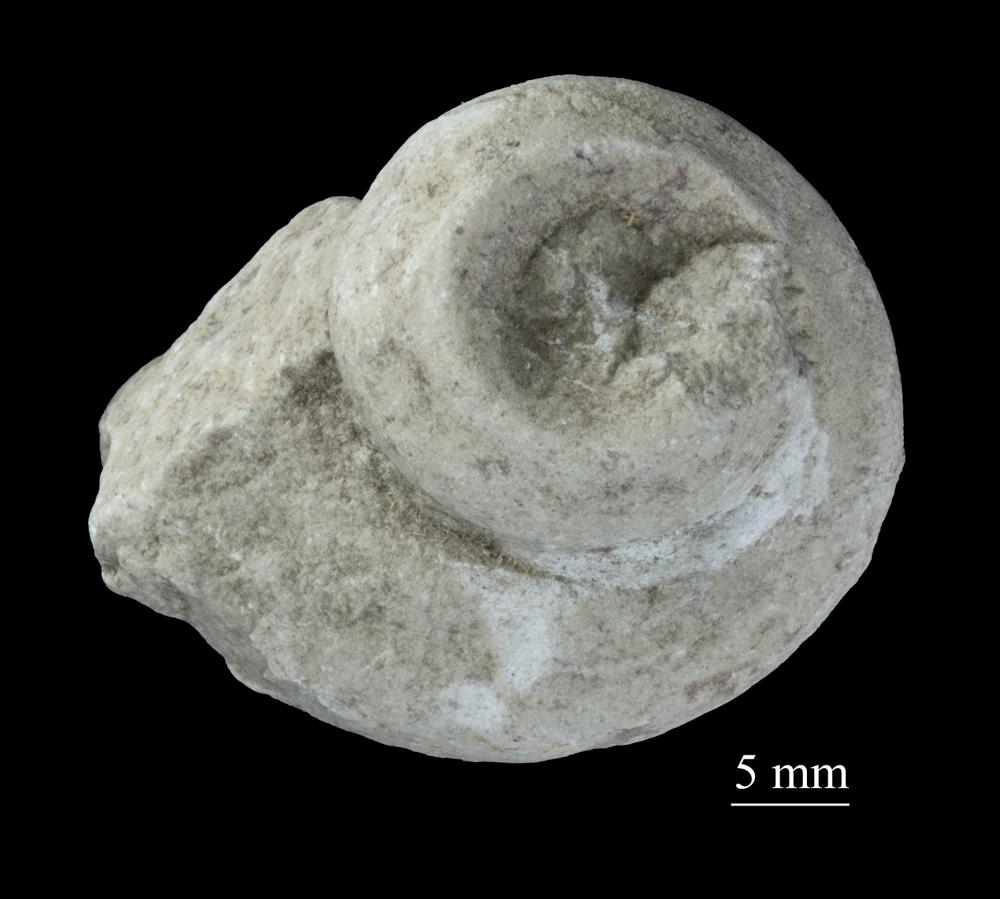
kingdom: Animalia
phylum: Mollusca
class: Gastropoda
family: Lophospiridae
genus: Ruedemannia
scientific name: Ruedemannia Worthenia borkholmiensis
